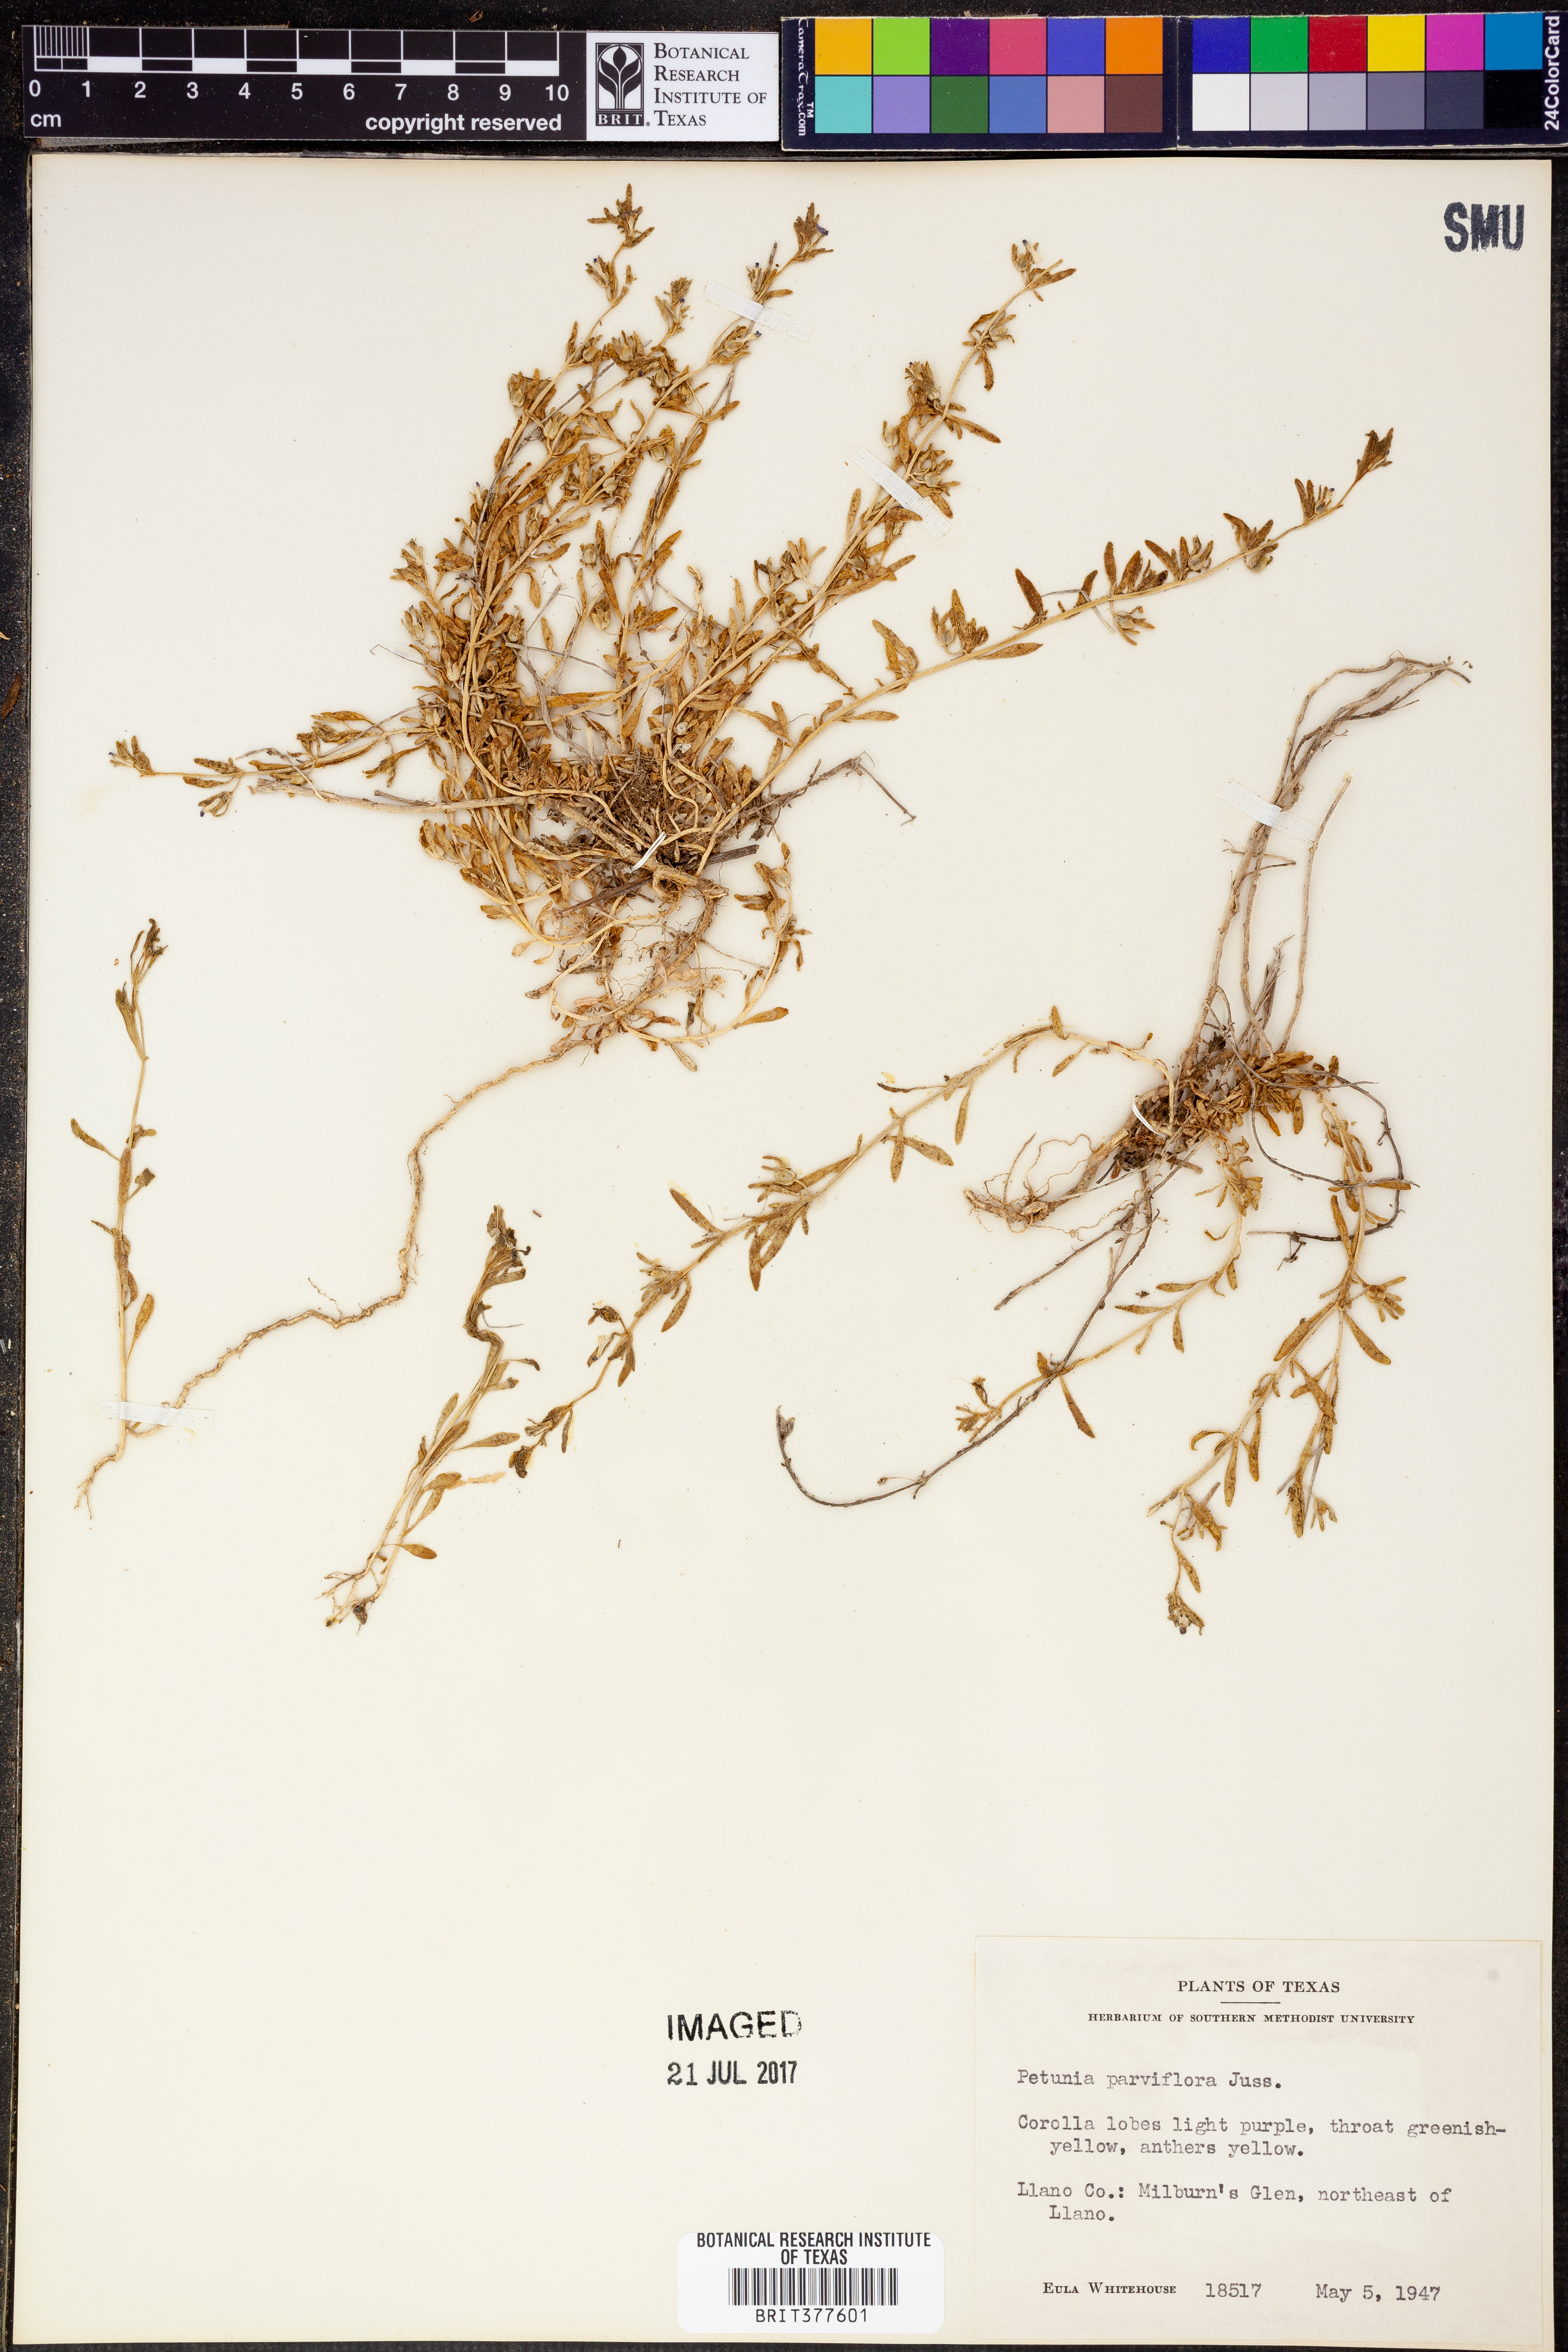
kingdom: Plantae
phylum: Tracheophyta
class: Magnoliopsida
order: Solanales
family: Solanaceae
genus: Calibrachoa
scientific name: Calibrachoa parviflora
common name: Seaside petunia
